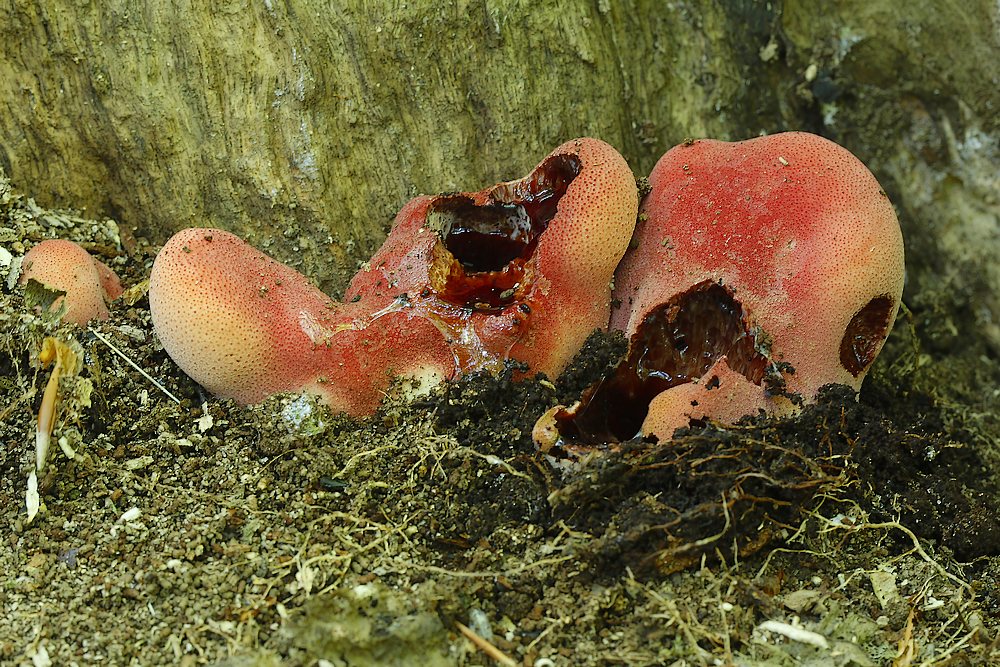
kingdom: Fungi
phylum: Basidiomycota
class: Agaricomycetes
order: Agaricales
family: Fistulinaceae
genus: Fistulina
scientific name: Fistulina hepatica
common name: oksetunge
